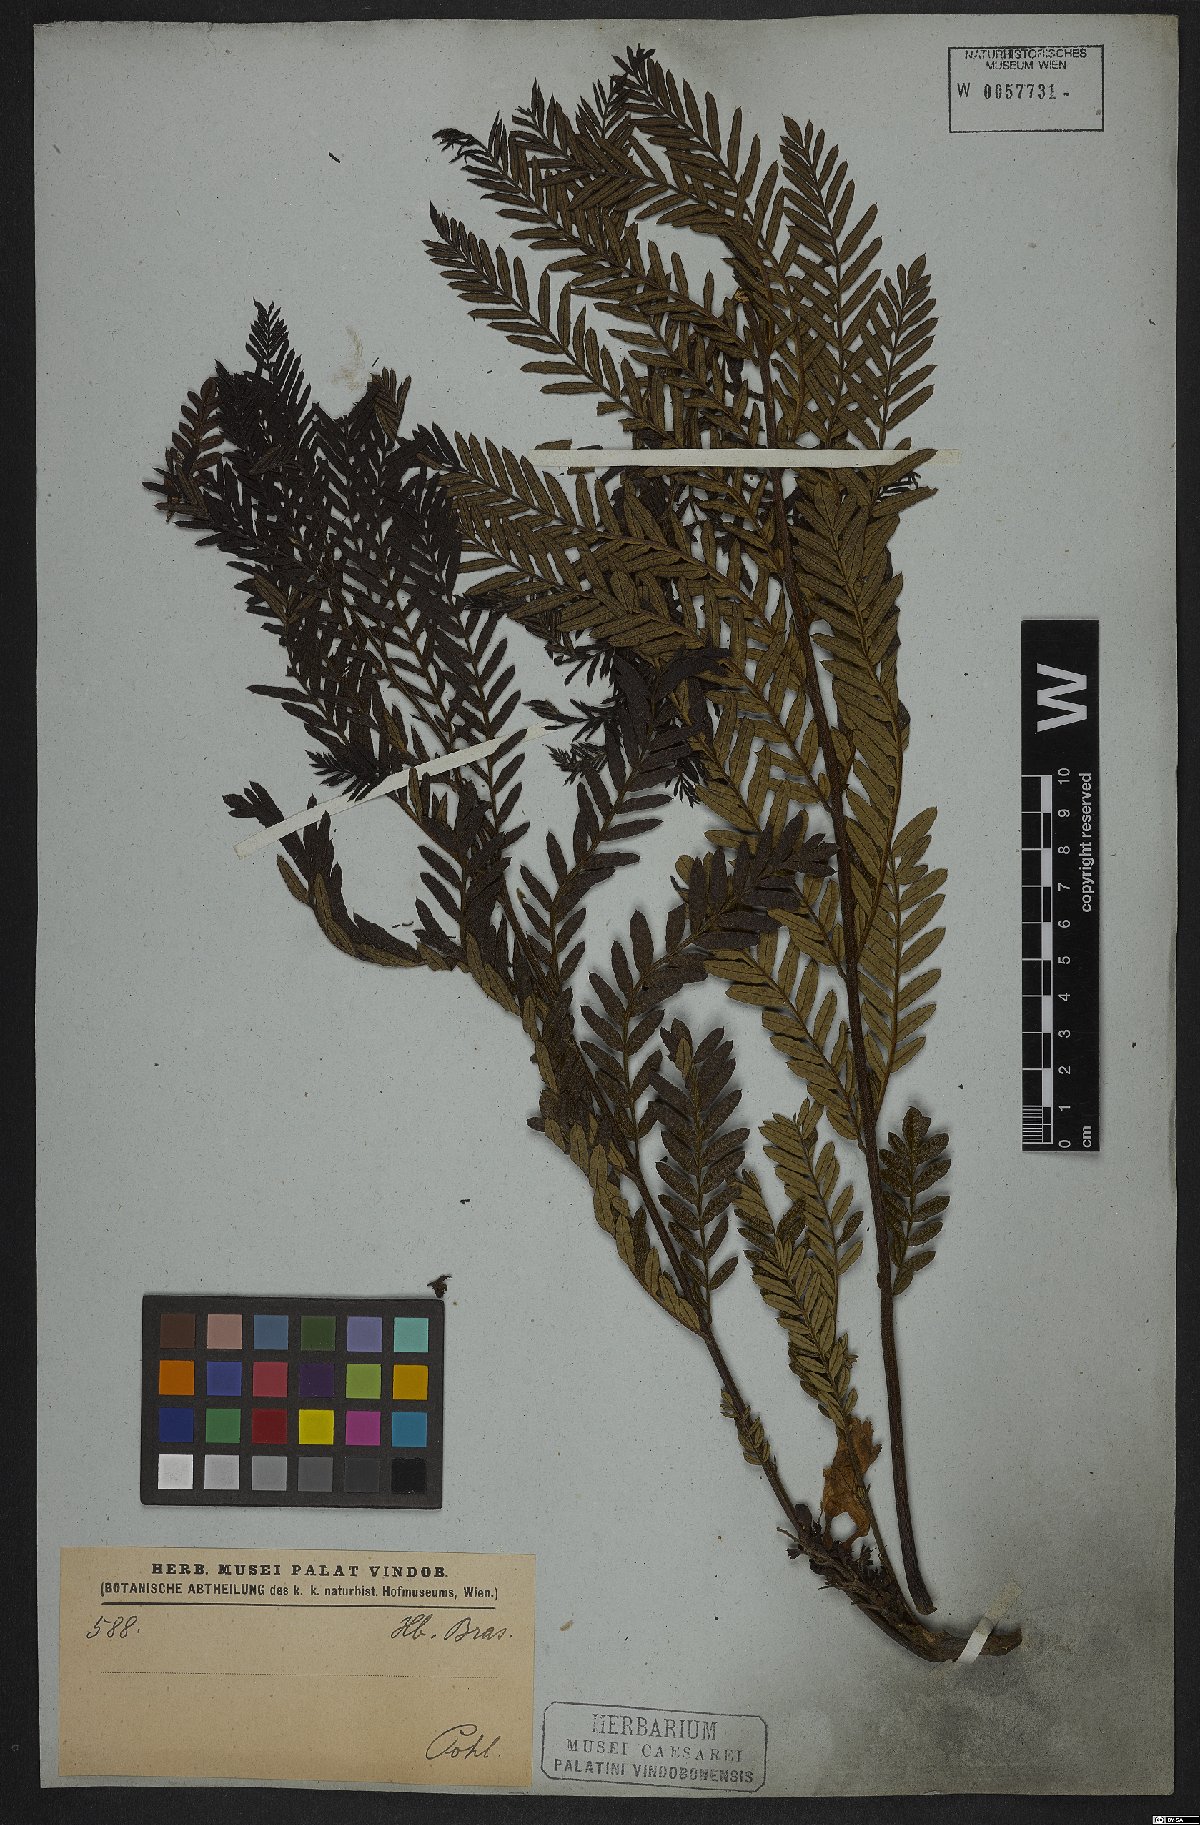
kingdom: Plantae
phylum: Tracheophyta
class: Magnoliopsida
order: Lamiales
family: Bignoniaceae
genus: Jacaranda
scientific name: Jacaranda decurrens
